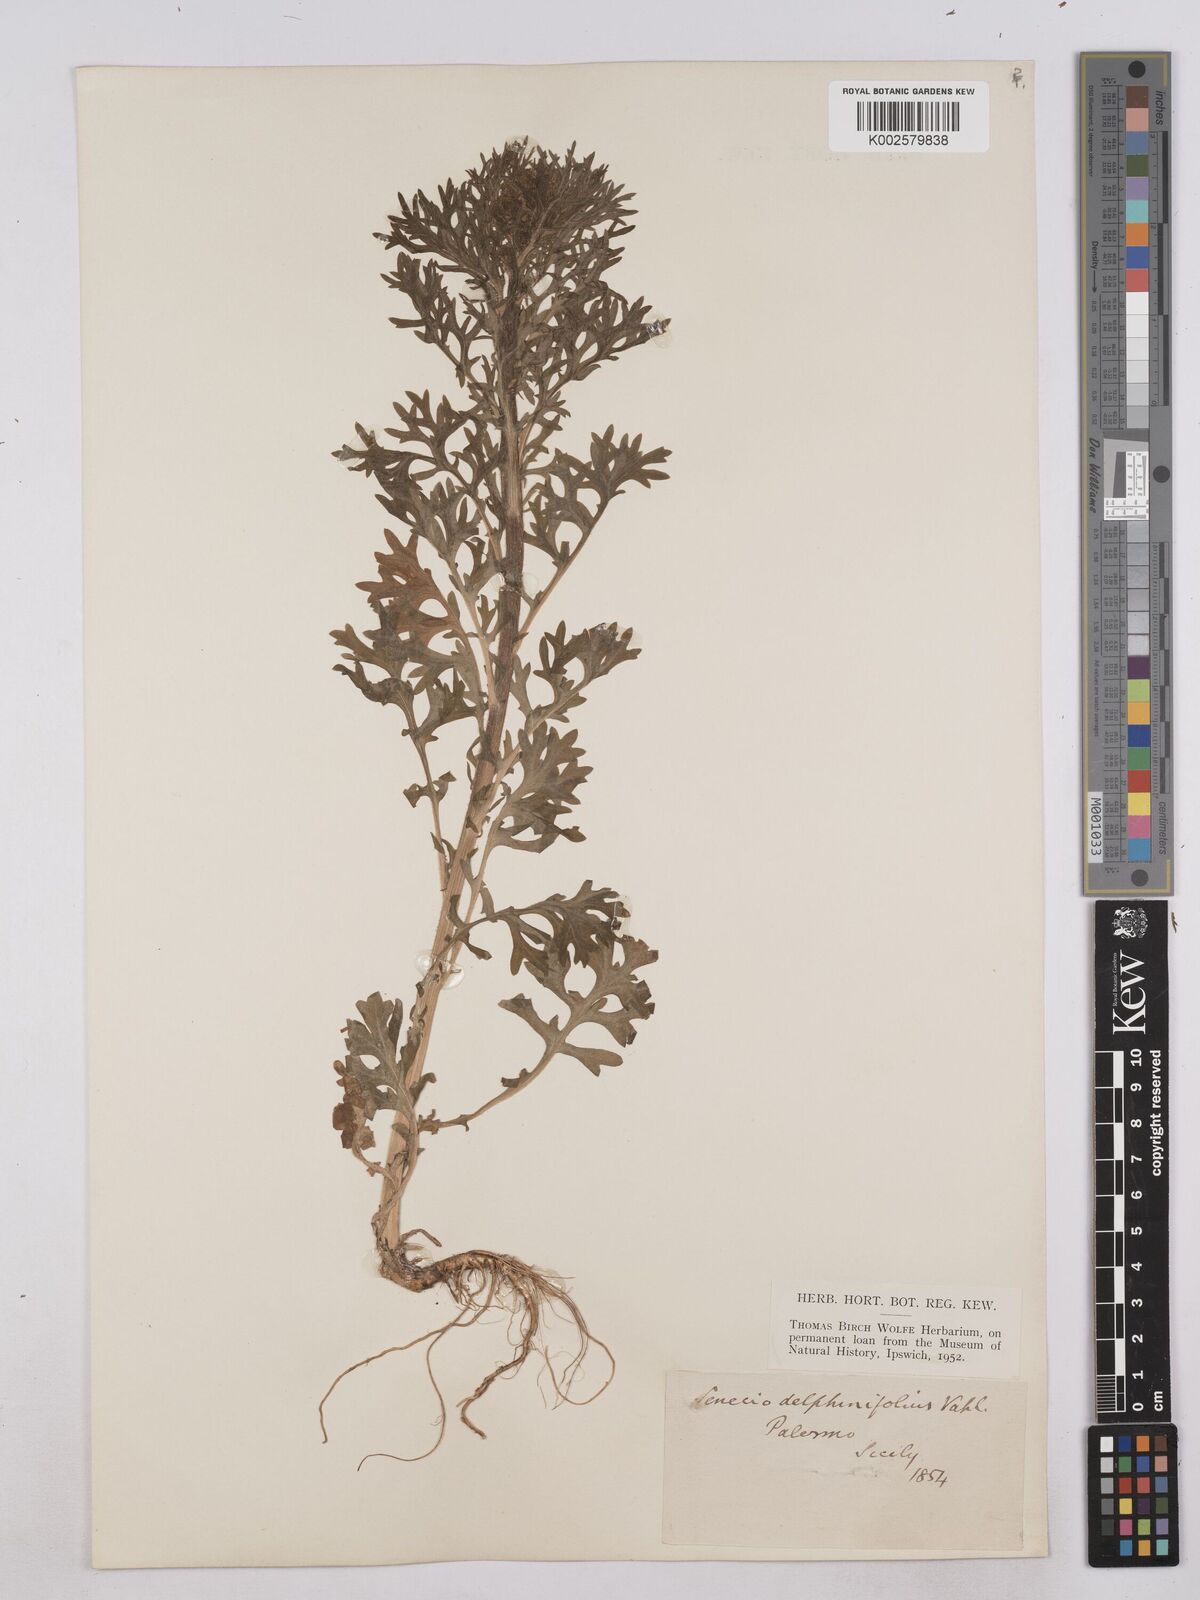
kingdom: Plantae
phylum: Tracheophyta
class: Magnoliopsida
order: Asterales
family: Asteraceae
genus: Jacobaea
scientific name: Jacobaea erucifolia
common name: Hoary ragwort
